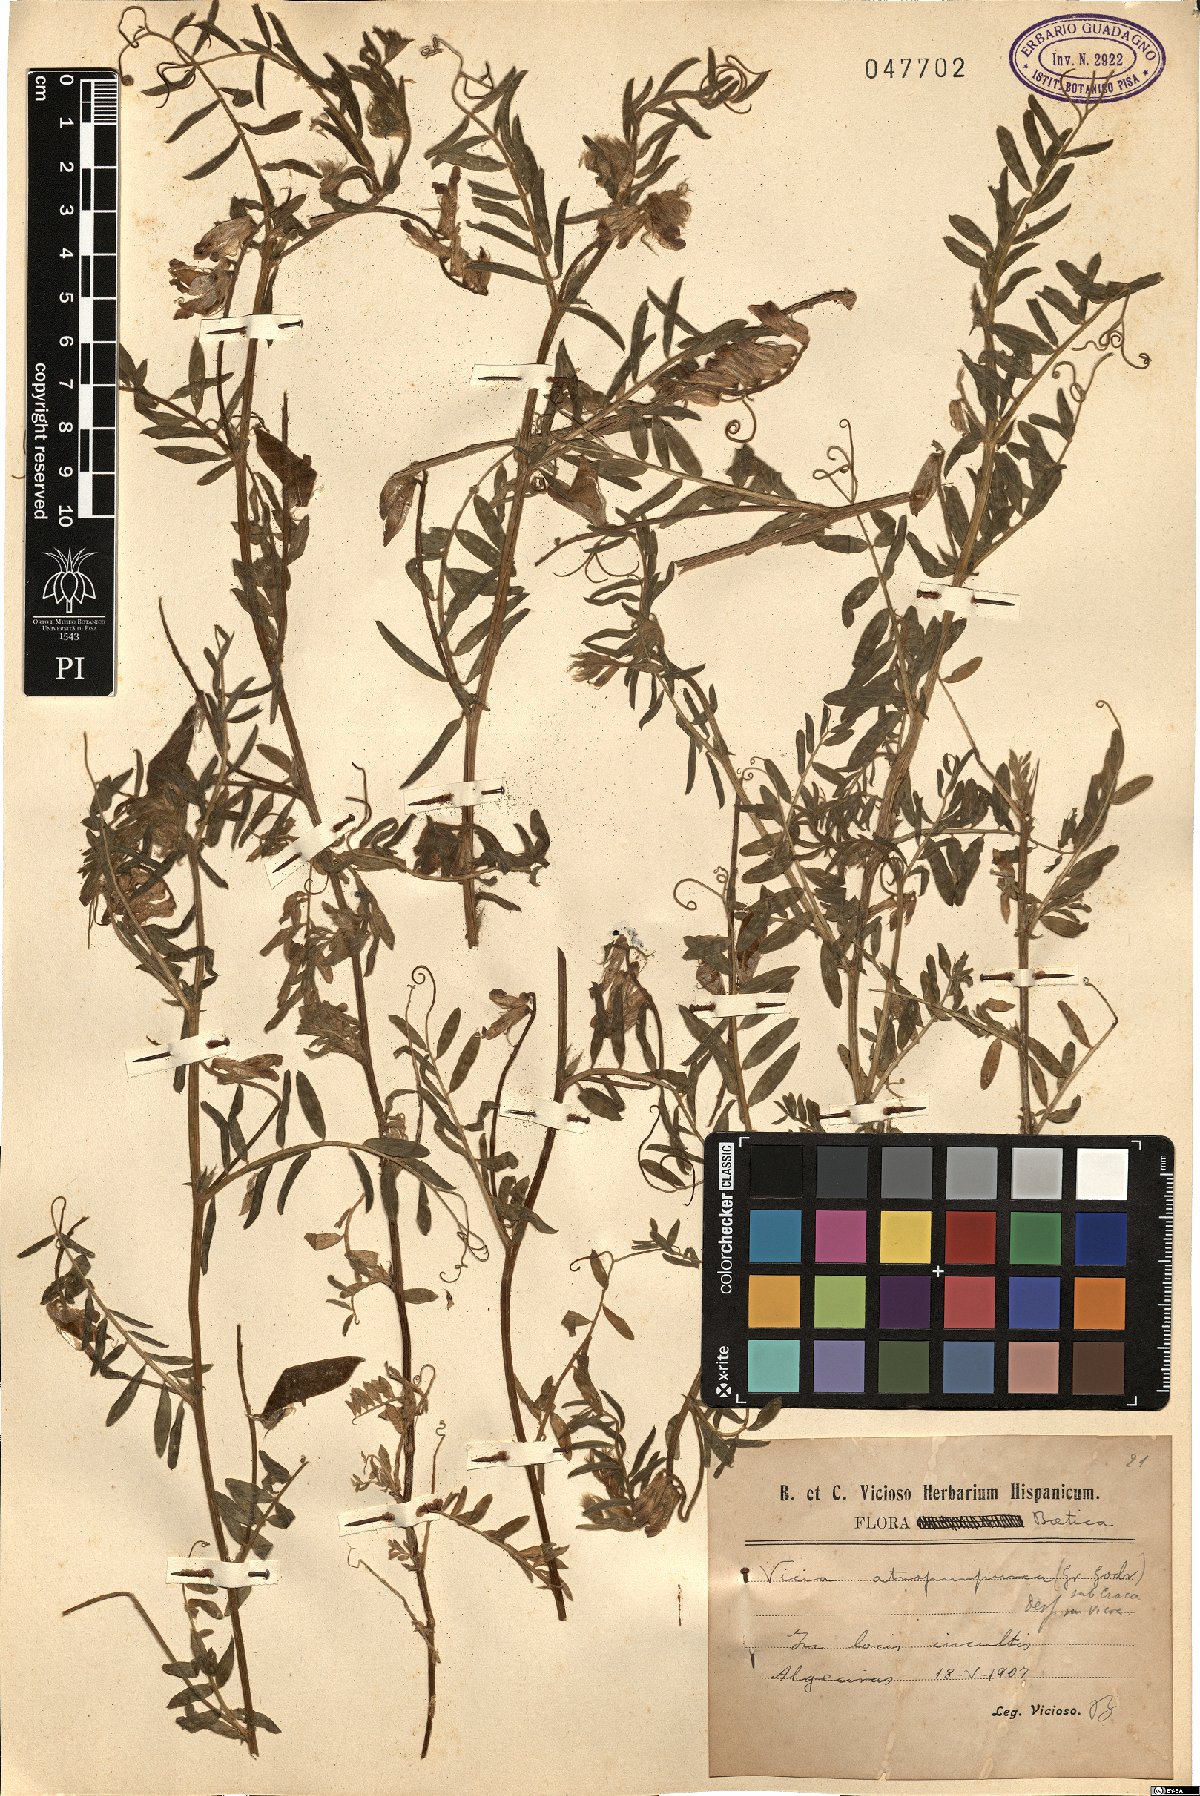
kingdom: Plantae
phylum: Tracheophyta
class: Magnoliopsida
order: Fabales
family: Fabaceae
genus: Vicia
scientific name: Vicia benghalensis
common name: Purple vetch
